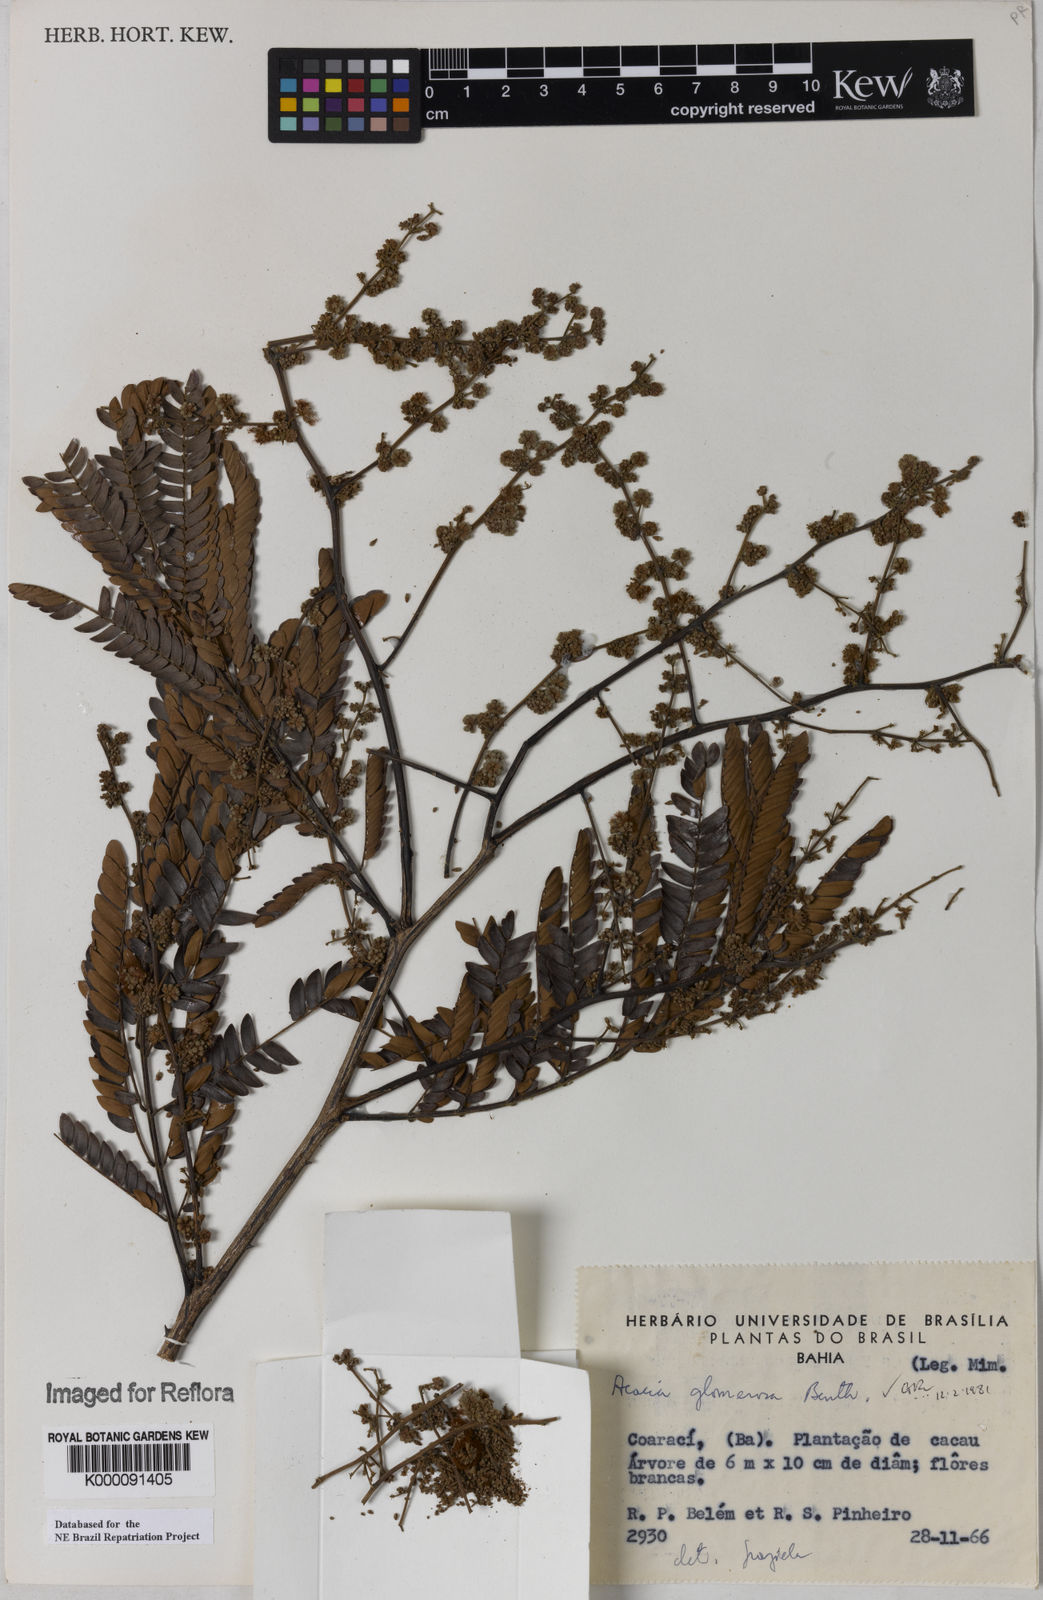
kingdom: Plantae
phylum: Tracheophyta
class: Magnoliopsida
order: Fabales
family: Fabaceae
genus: Senegalia
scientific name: Senegalia polyphylla
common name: White-tamarind
